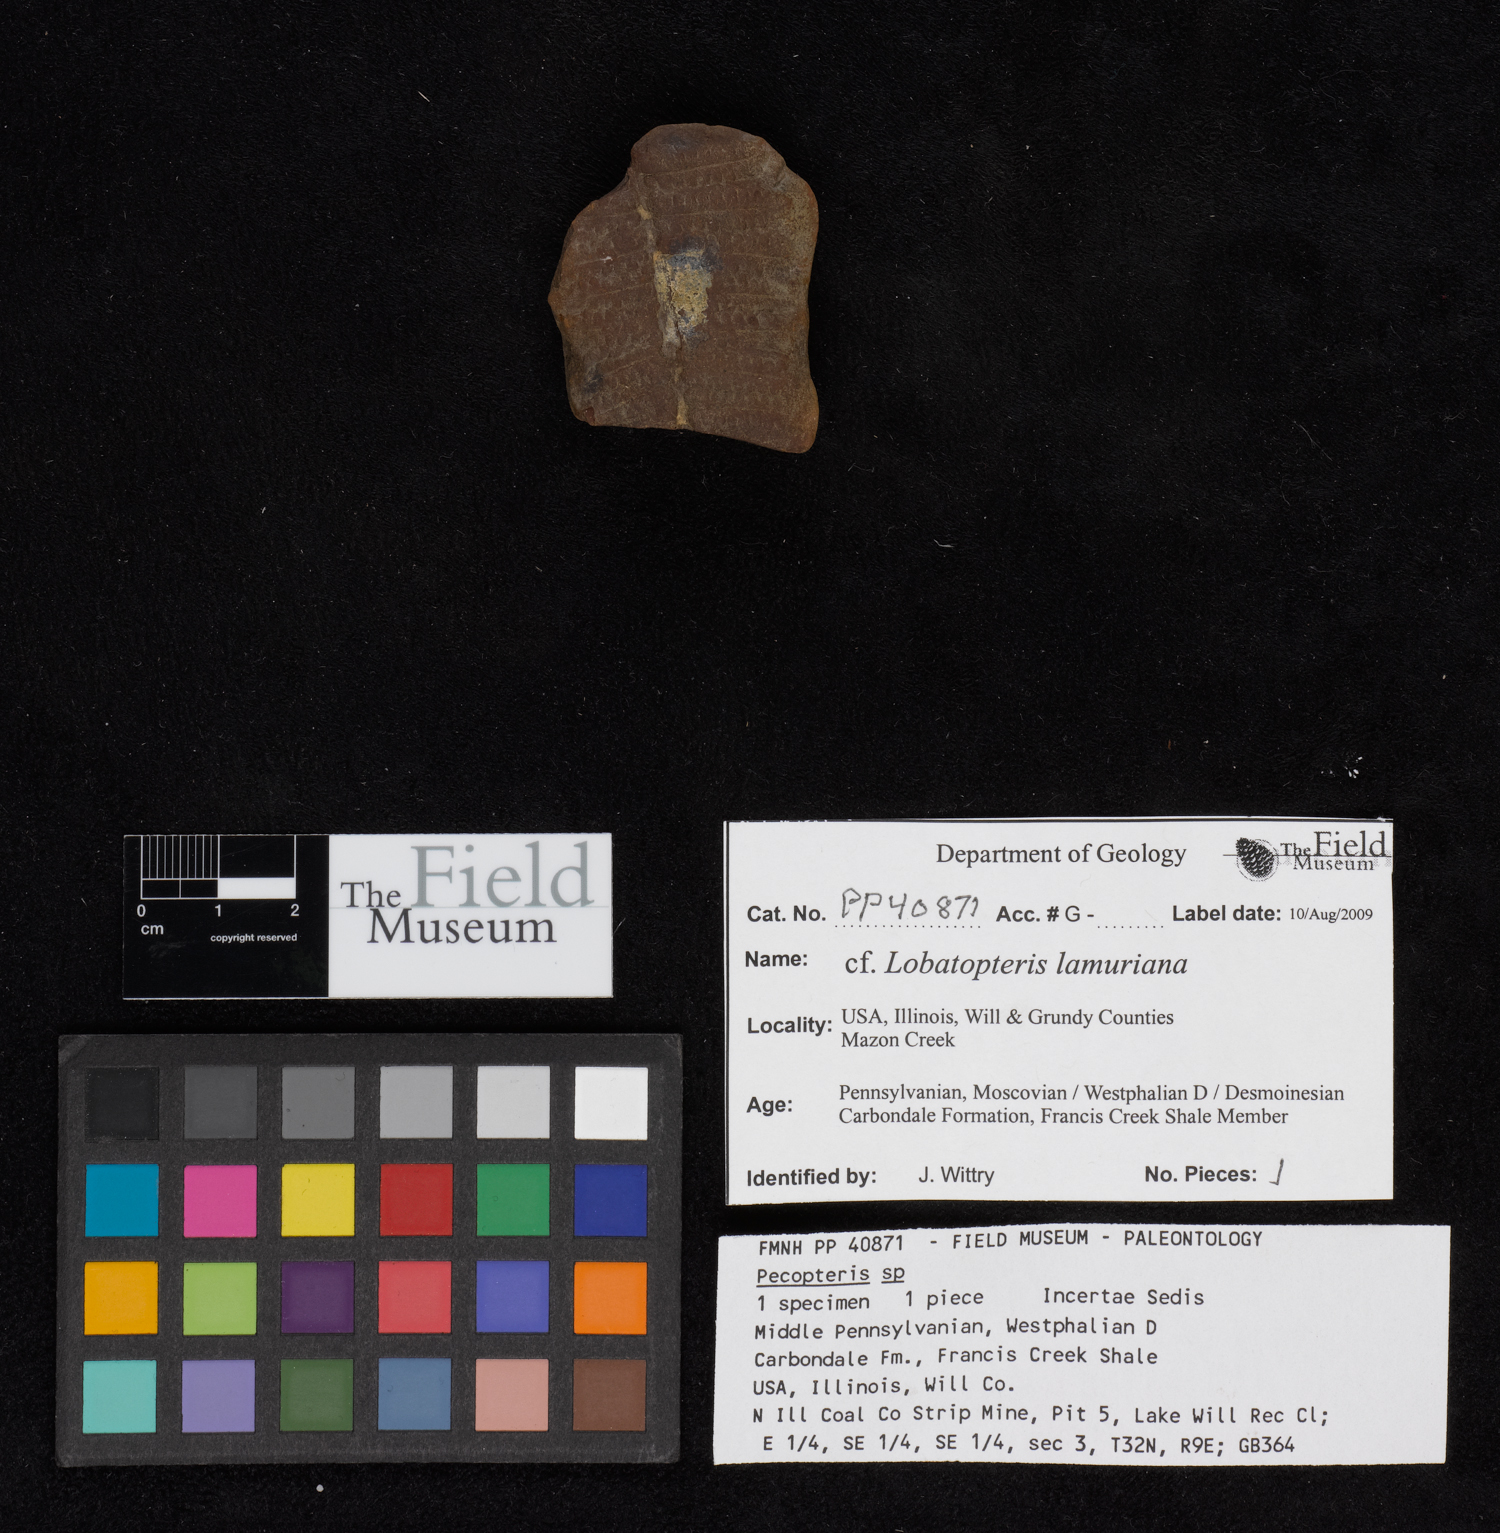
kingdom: Plantae
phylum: Tracheophyta
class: Polypodiopsida
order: Marattiales
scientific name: Marattiales
